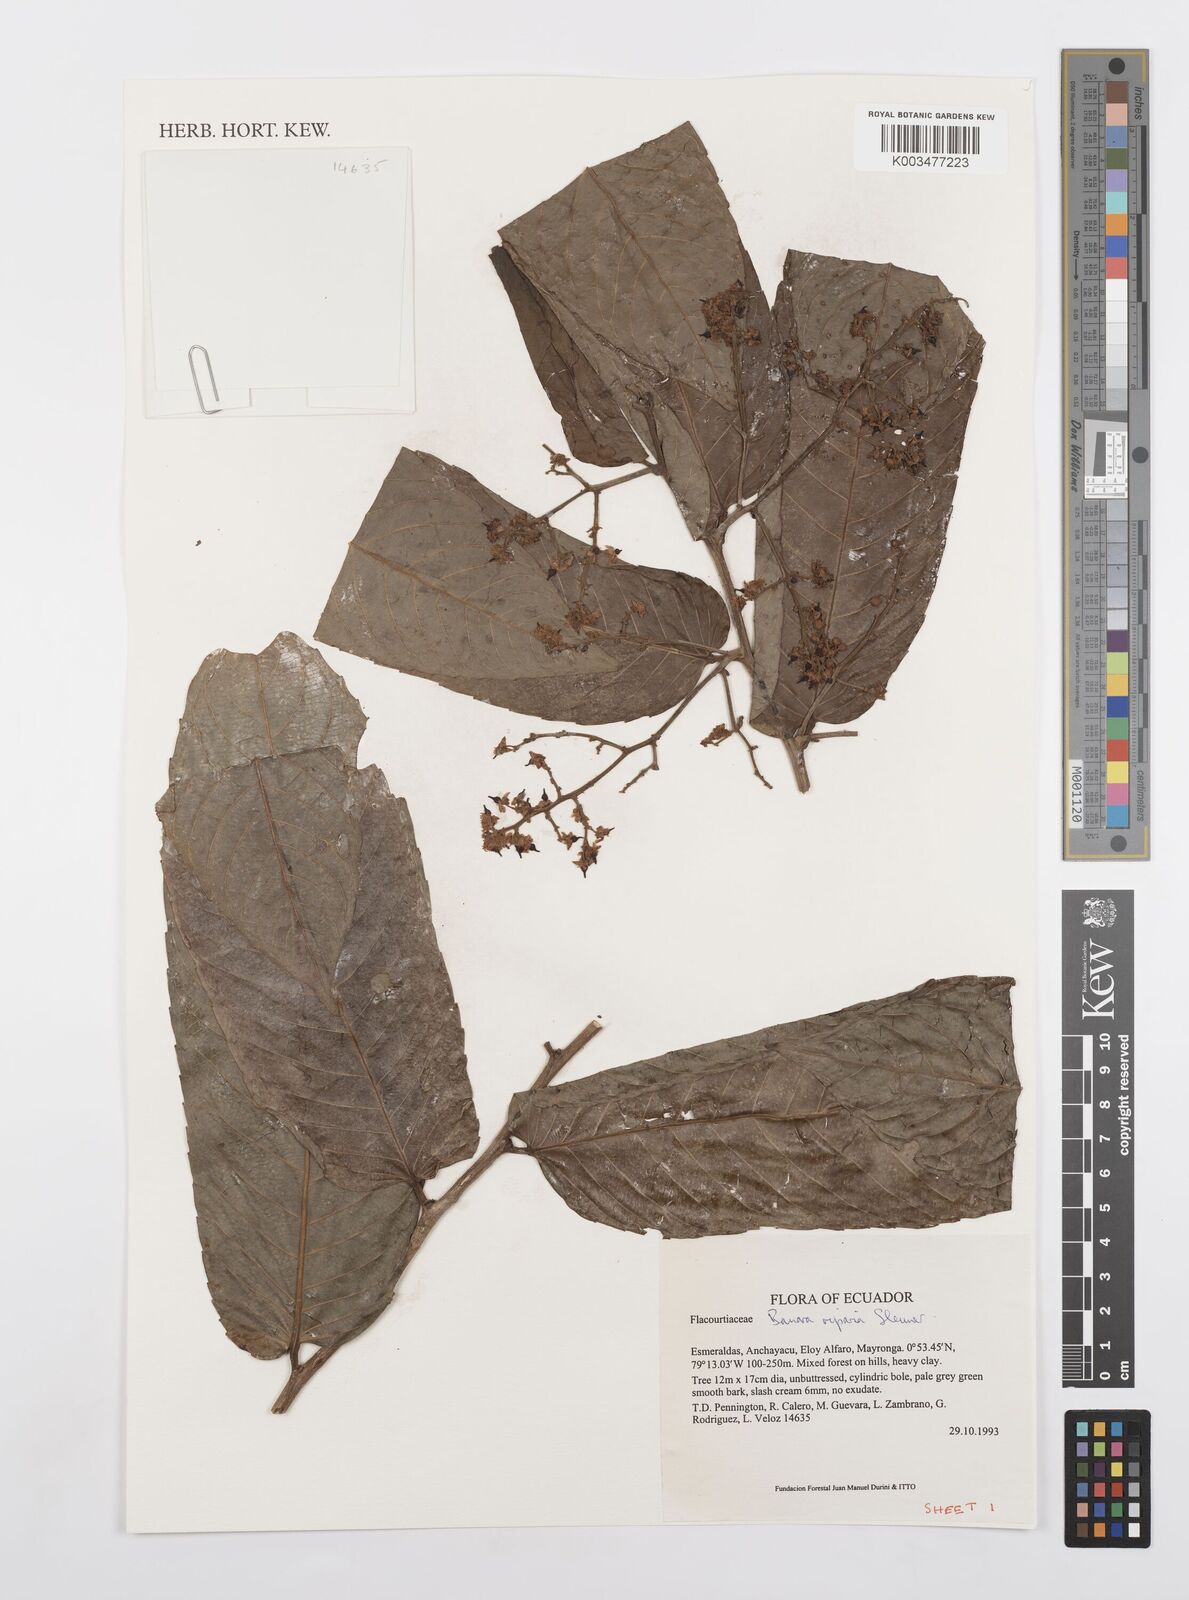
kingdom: Plantae
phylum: Tracheophyta
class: Magnoliopsida
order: Malpighiales
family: Salicaceae
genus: Banara
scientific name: Banara riparia
